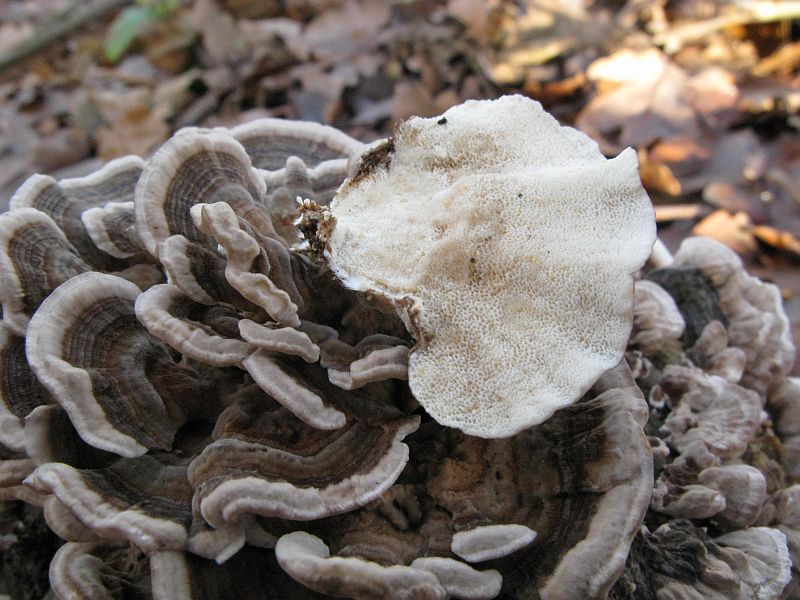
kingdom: Fungi
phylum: Basidiomycota
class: Agaricomycetes
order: Polyporales
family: Polyporaceae
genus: Trametes
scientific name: Trametes versicolor
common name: broget læderporesvamp
